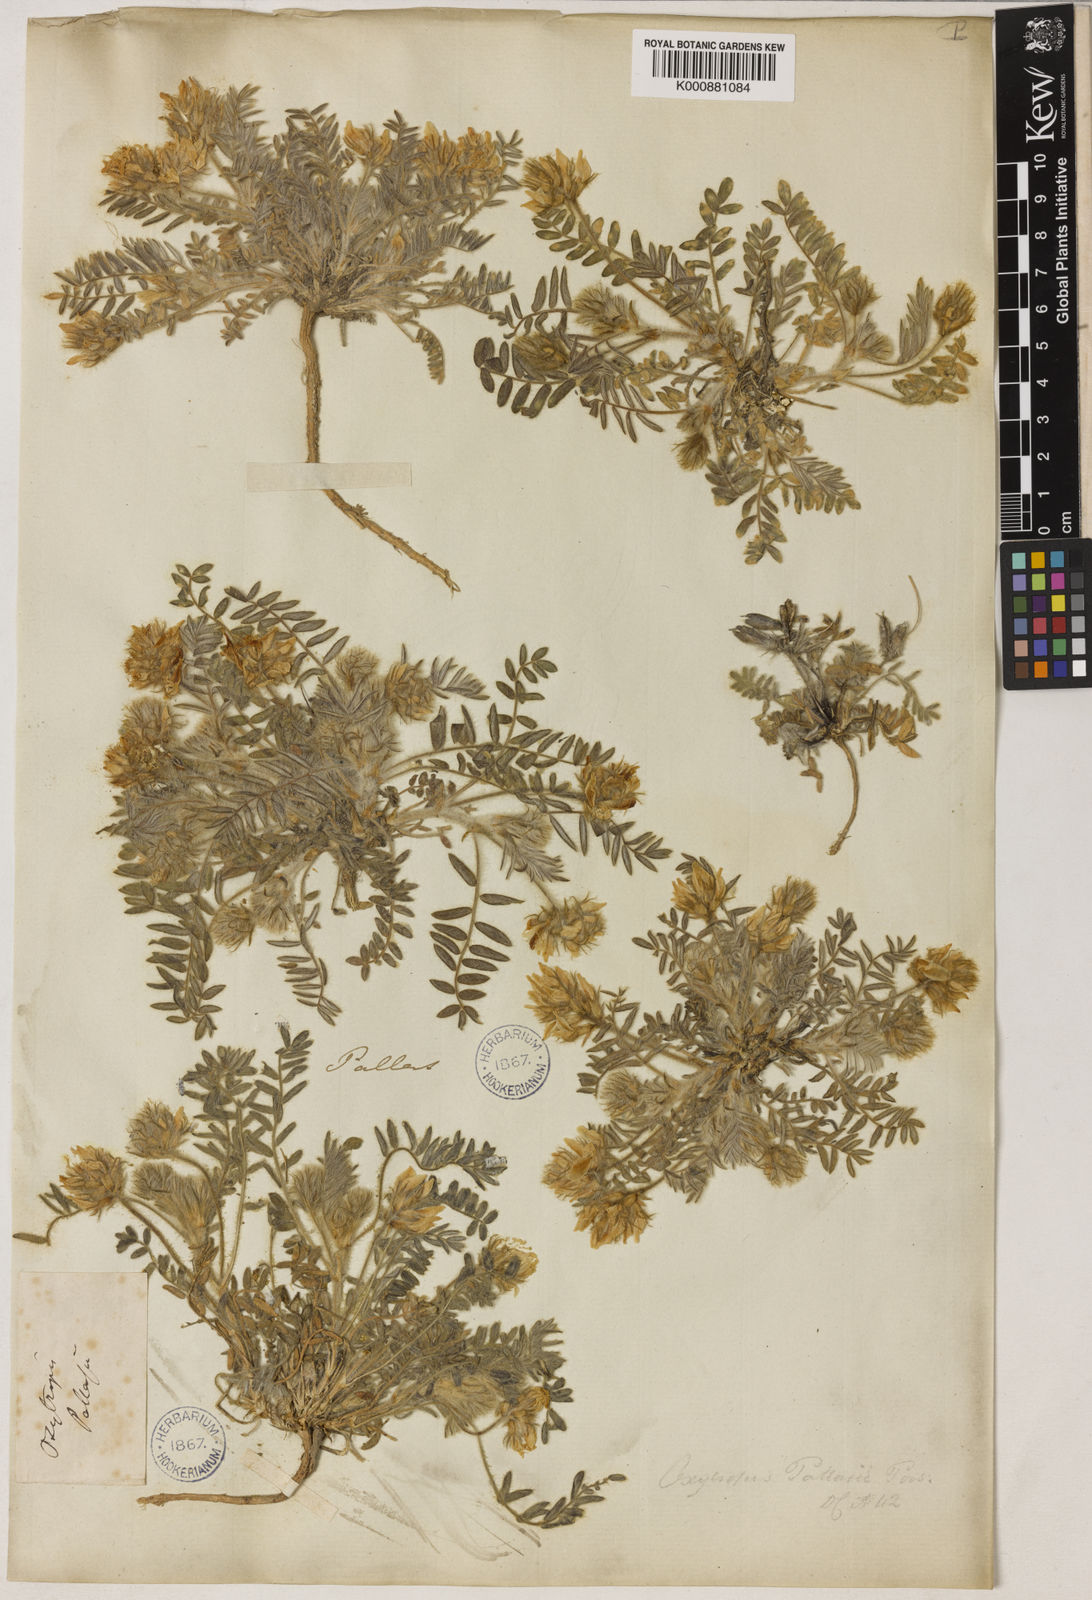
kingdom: Plantae
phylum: Tracheophyta
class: Magnoliopsida
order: Fabales
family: Fabaceae
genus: Oxytropis
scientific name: Oxytropis pallasii
